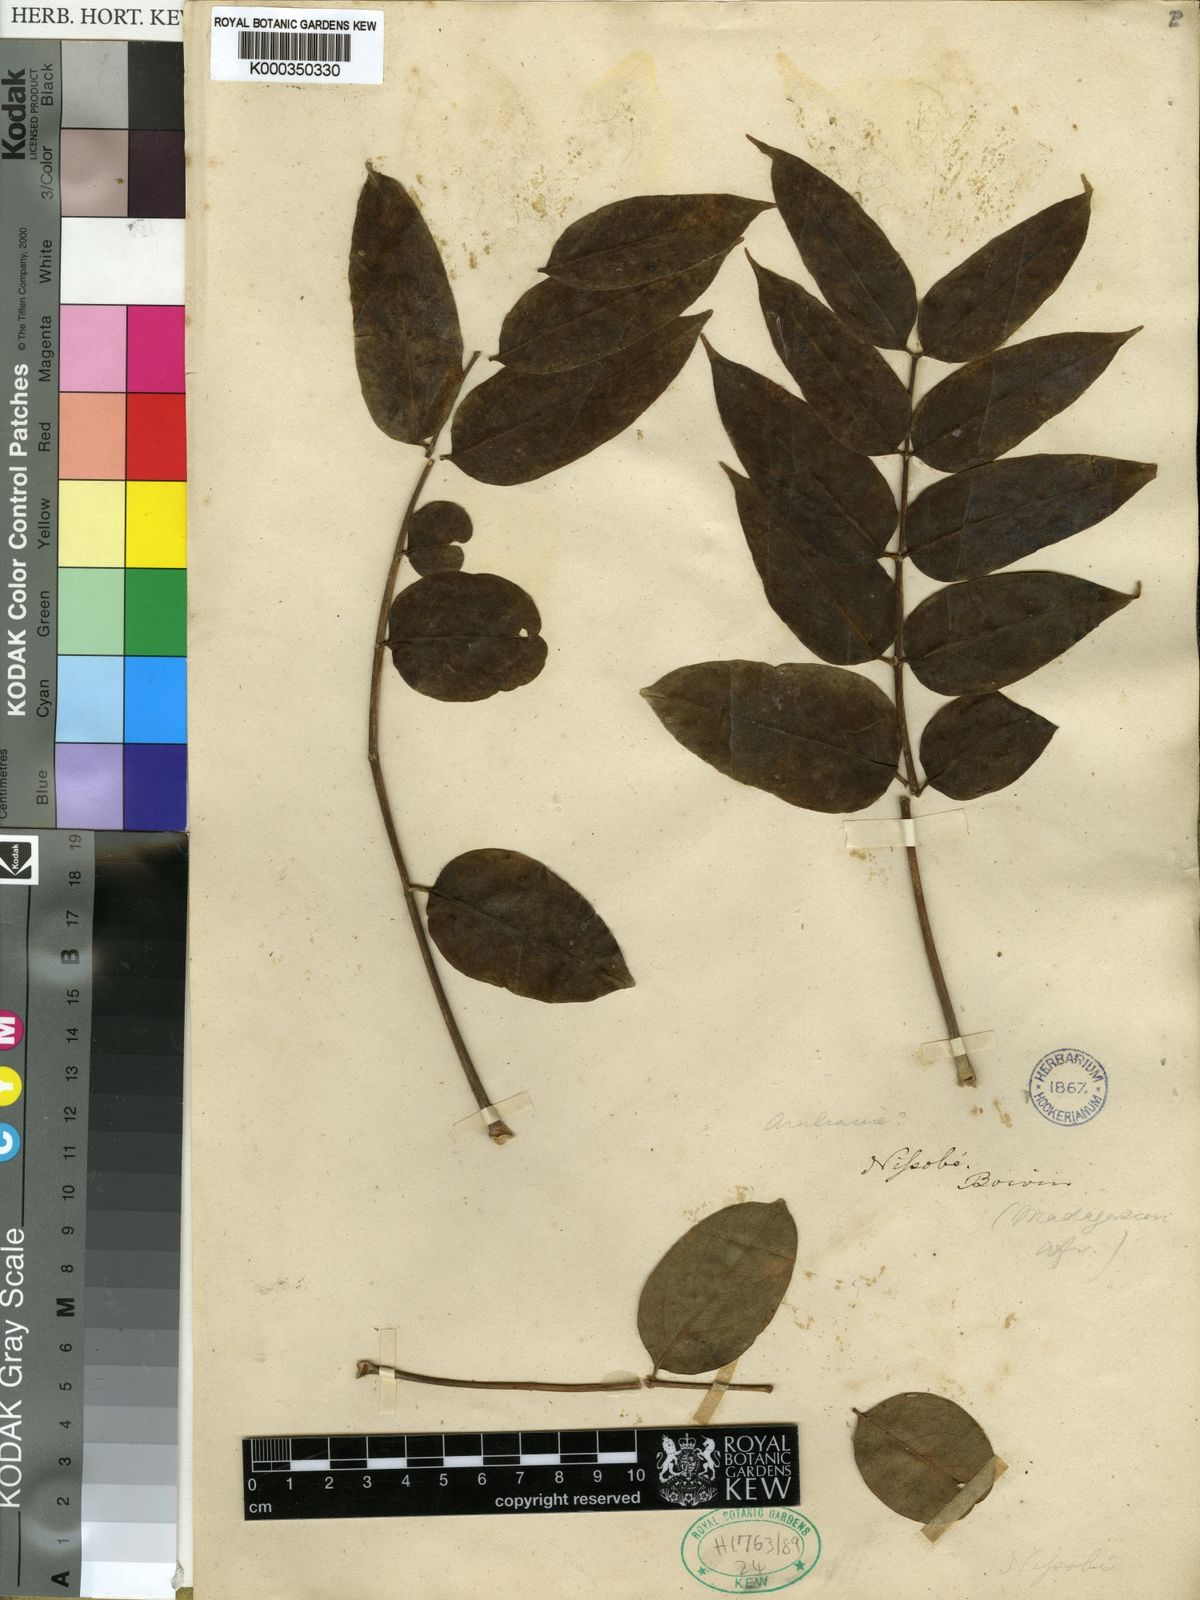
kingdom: Plantae
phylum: Tracheophyta
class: Magnoliopsida
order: Apiales
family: Araliaceae
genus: Polyscias
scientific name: Polyscias boivinii
